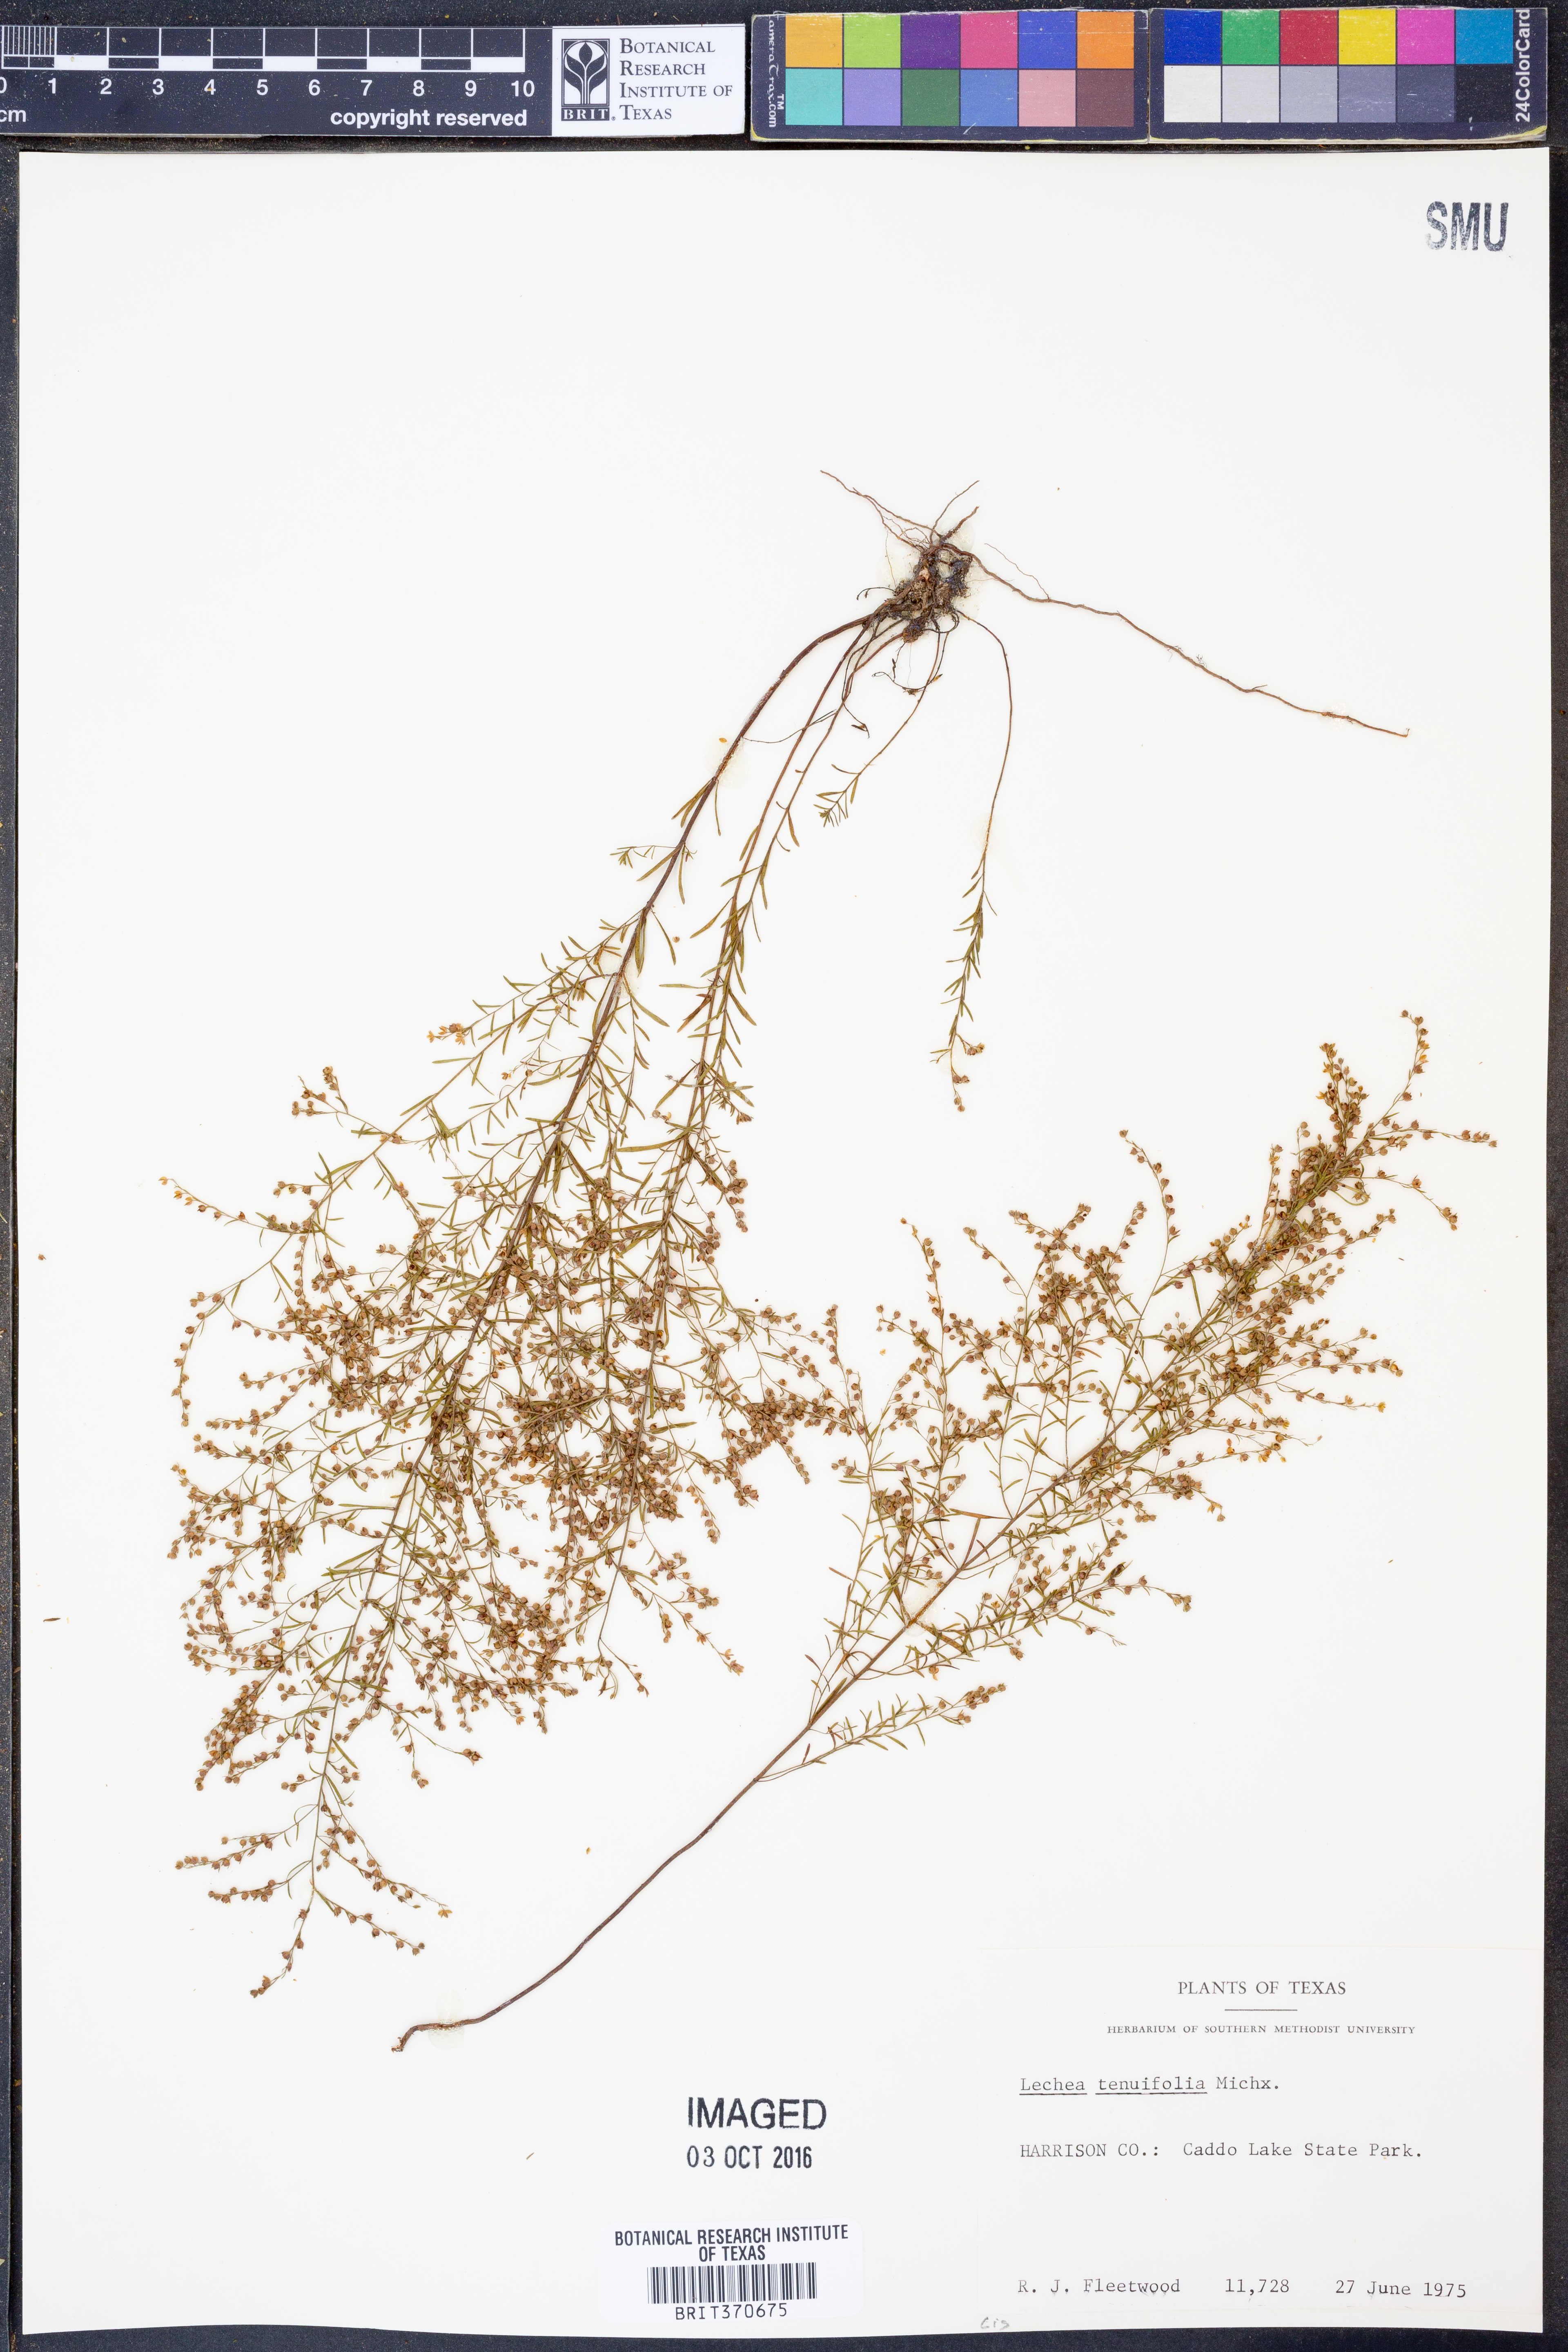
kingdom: Plantae
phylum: Tracheophyta
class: Magnoliopsida
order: Malvales
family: Cistaceae
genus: Lechea
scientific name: Lechea tenuifolia
